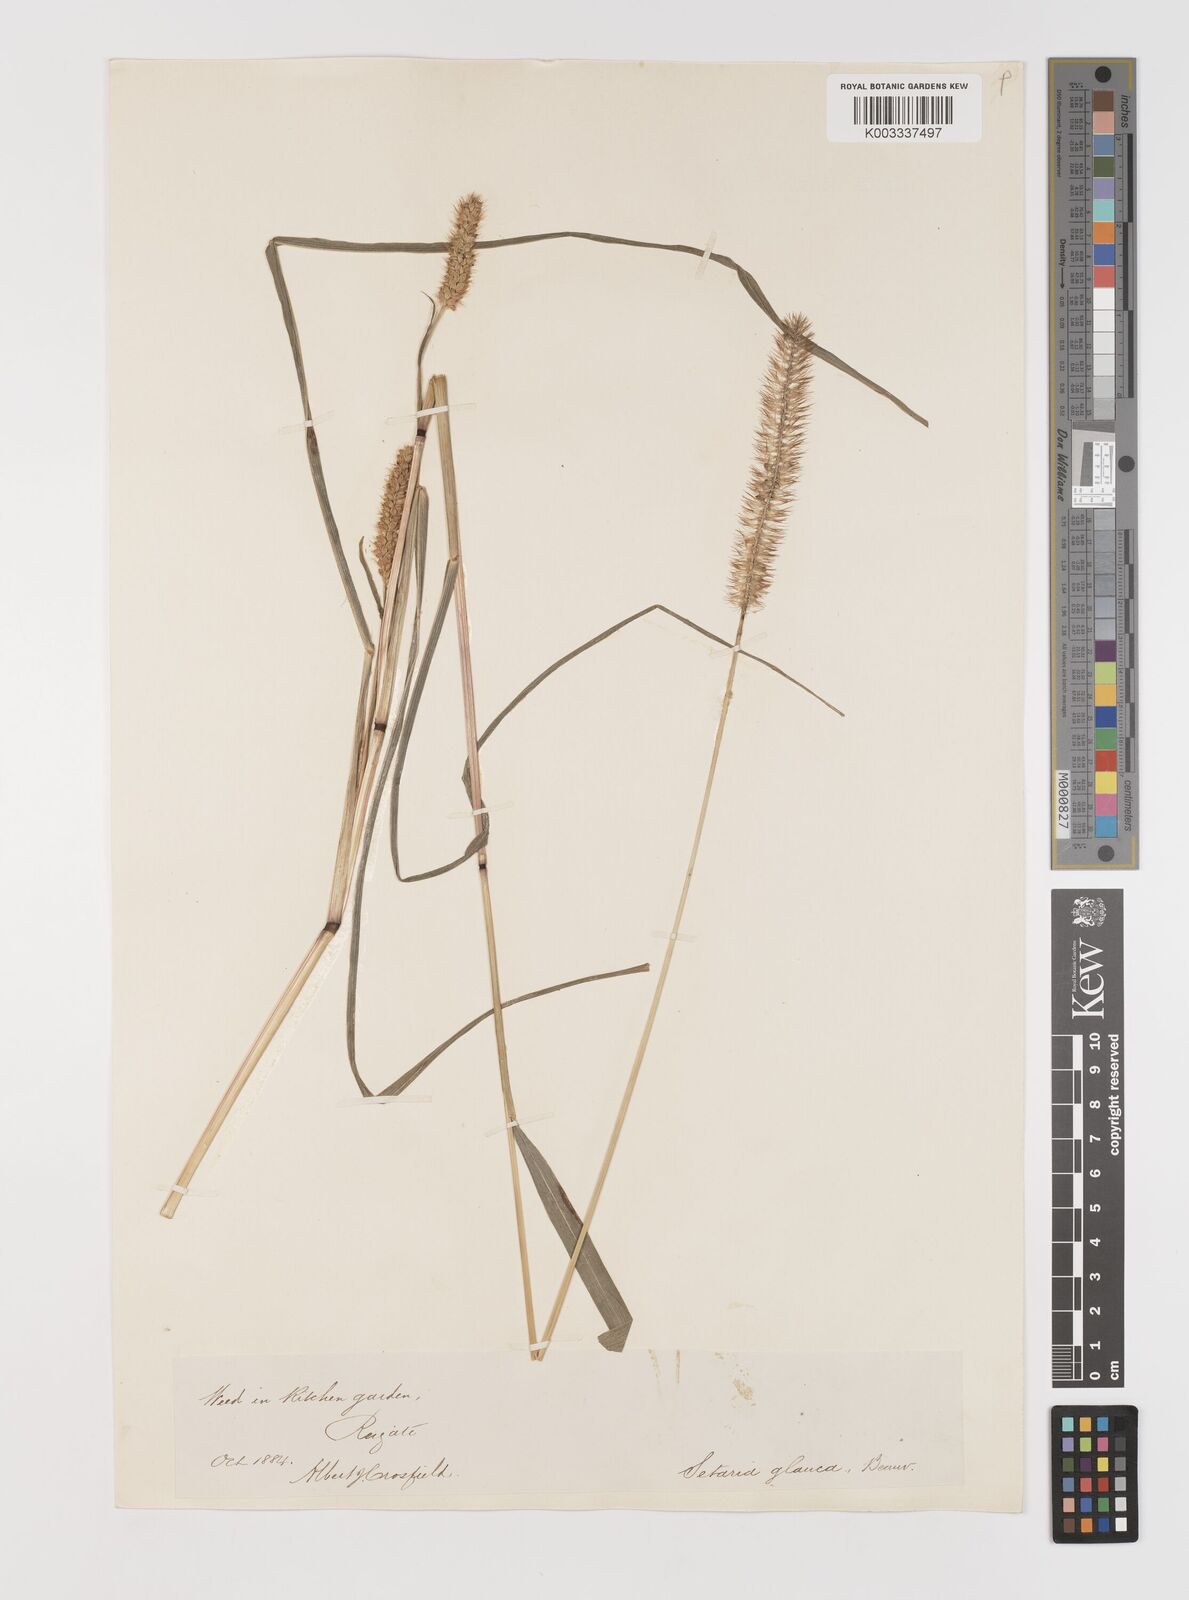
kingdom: Plantae
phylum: Tracheophyta
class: Liliopsida
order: Poales
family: Poaceae
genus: Setaria
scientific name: Setaria pumila
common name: Yellow bristle-grass
